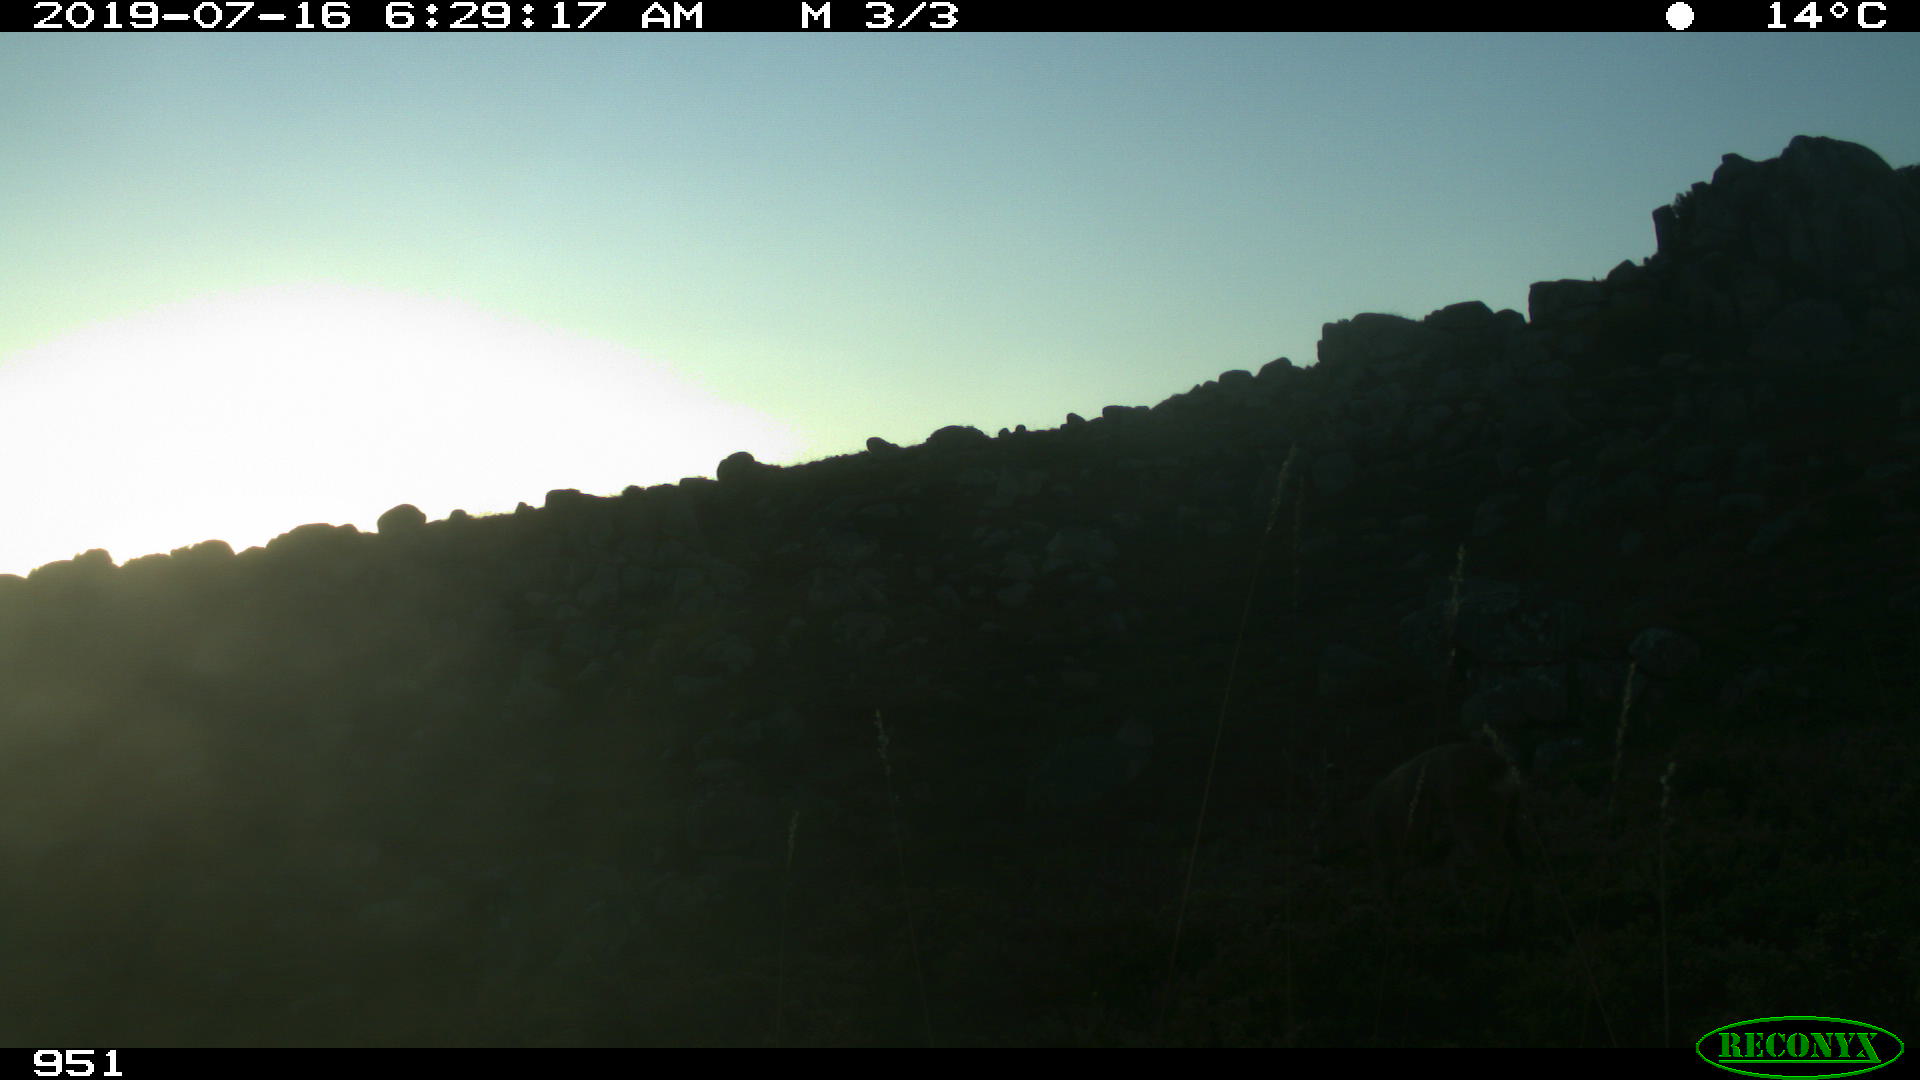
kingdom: Animalia
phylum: Chordata
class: Mammalia
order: Artiodactyla
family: Cervidae
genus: Capreolus
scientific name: Capreolus capreolus
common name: Western roe deer
